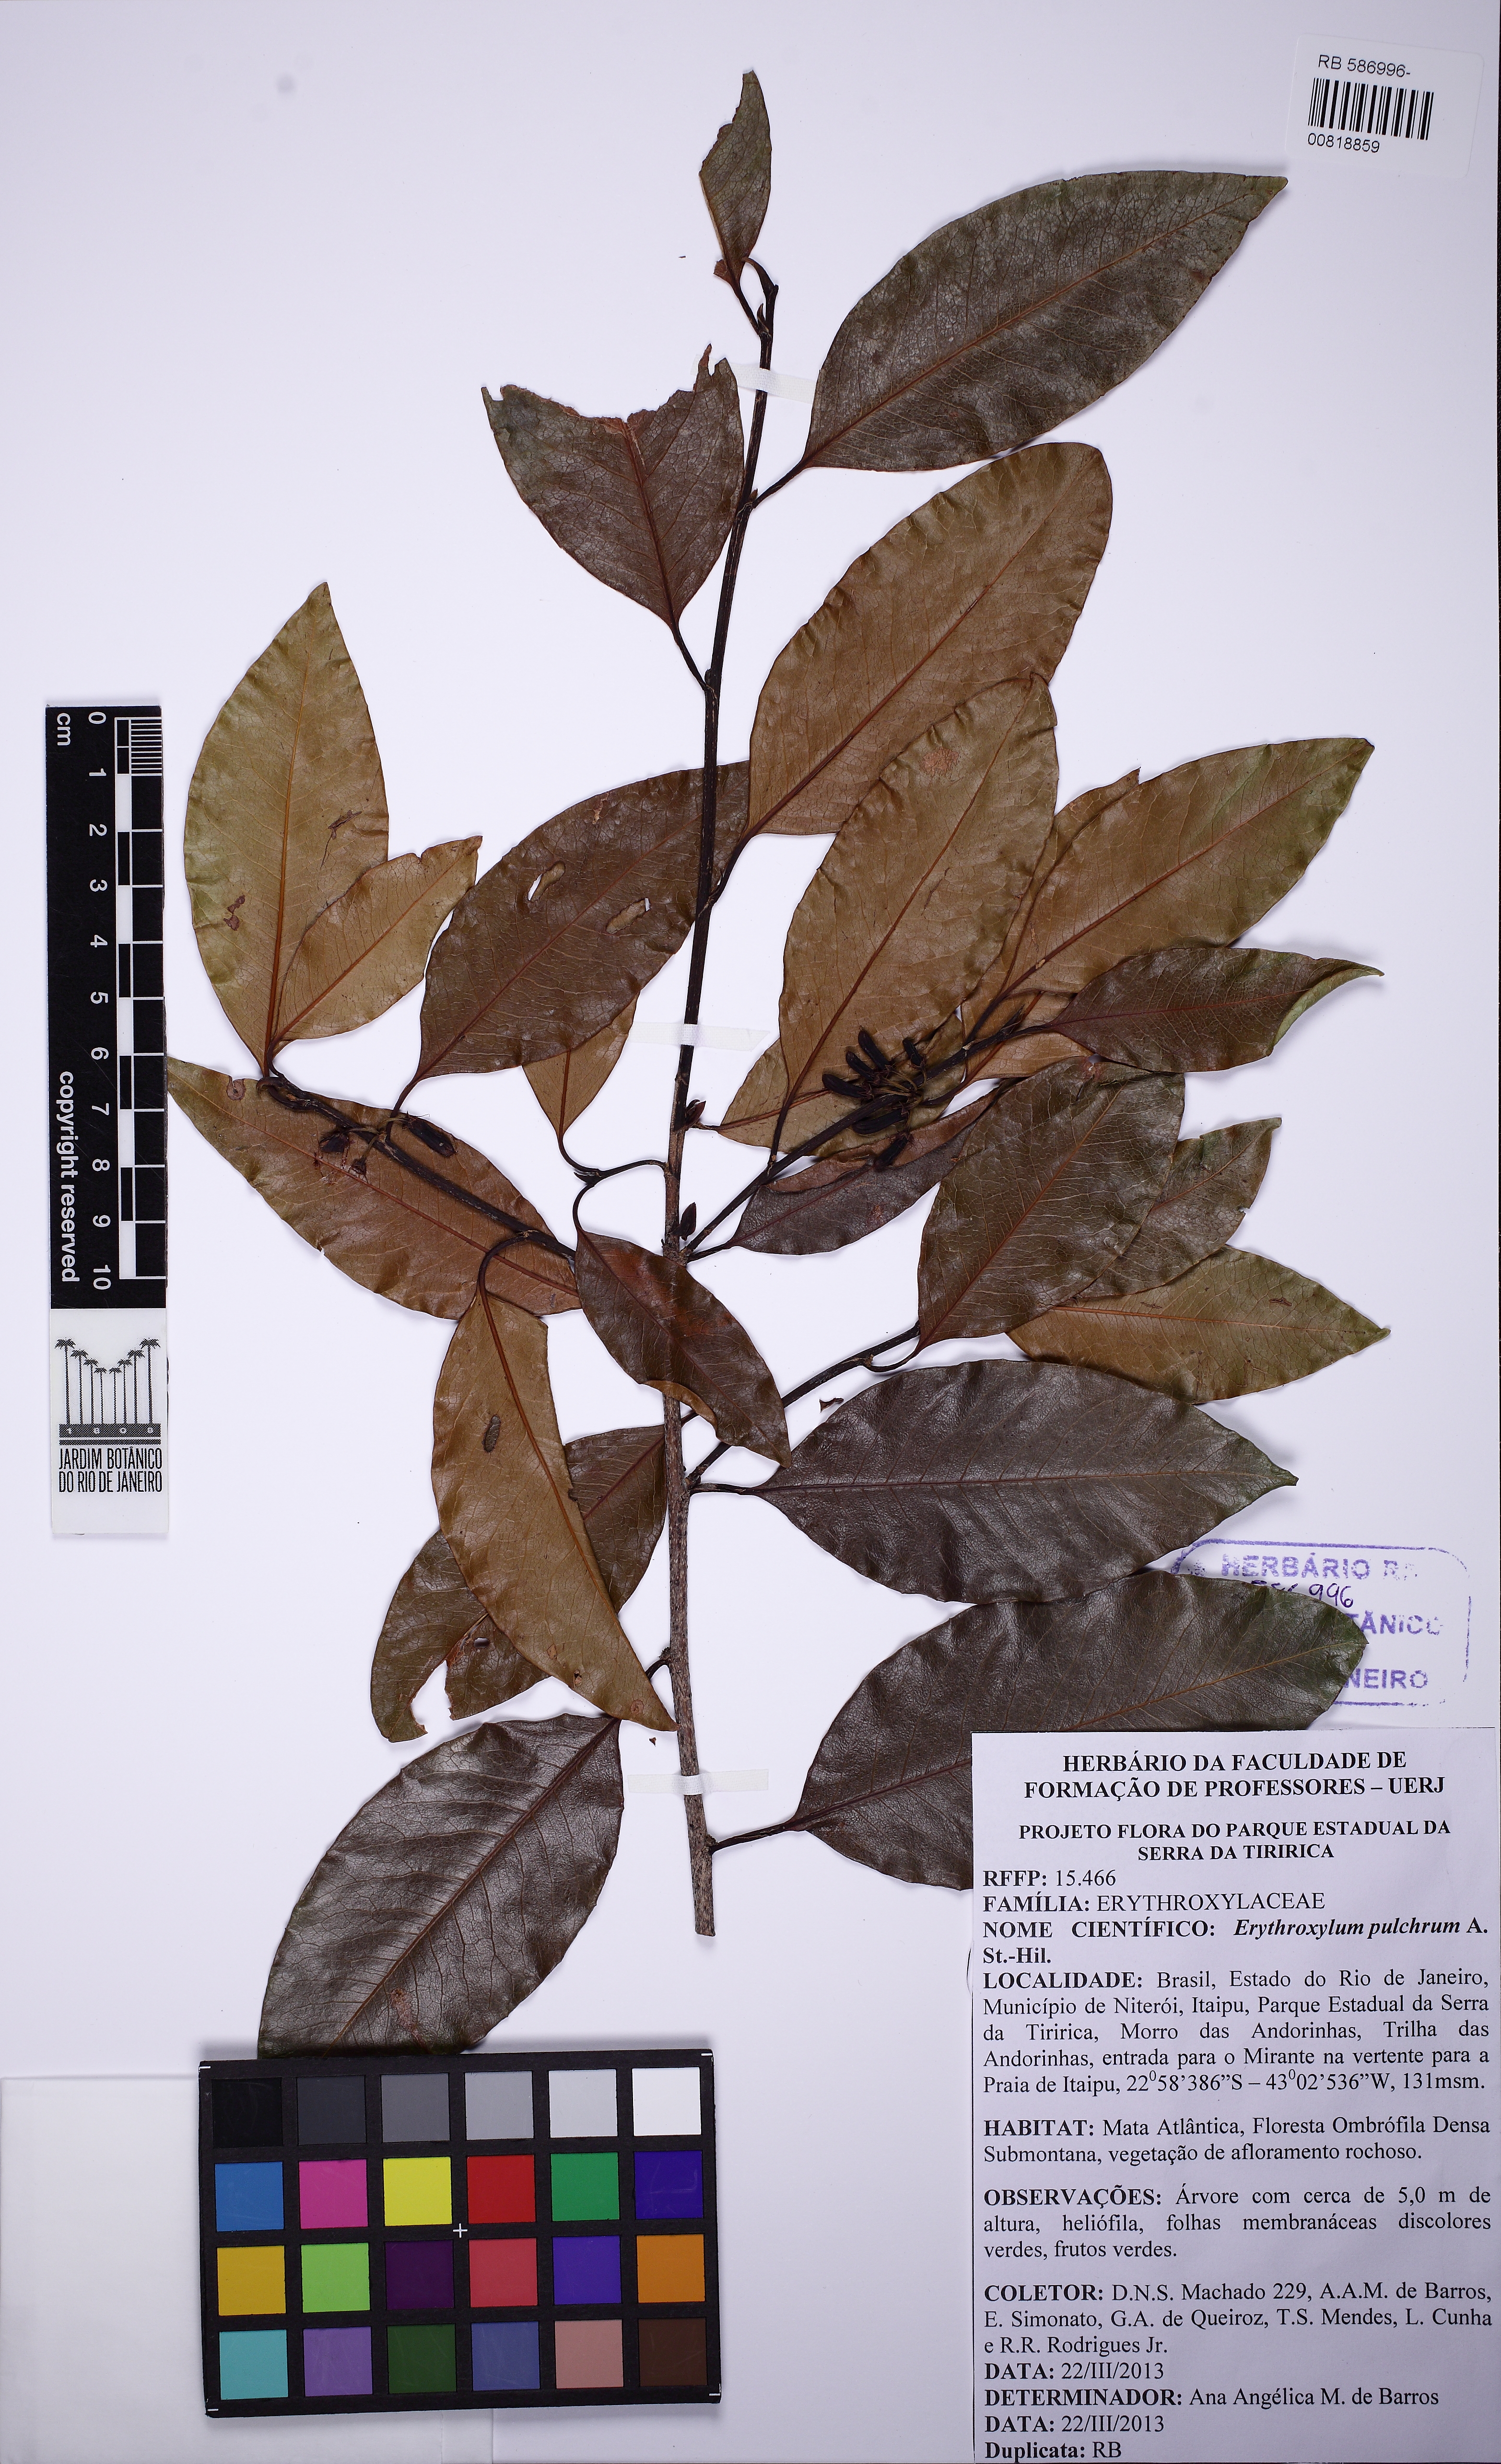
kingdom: Plantae
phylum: Tracheophyta
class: Magnoliopsida
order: Malpighiales
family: Erythroxylaceae
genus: Erythroxylum
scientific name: Erythroxylum pulchrum
